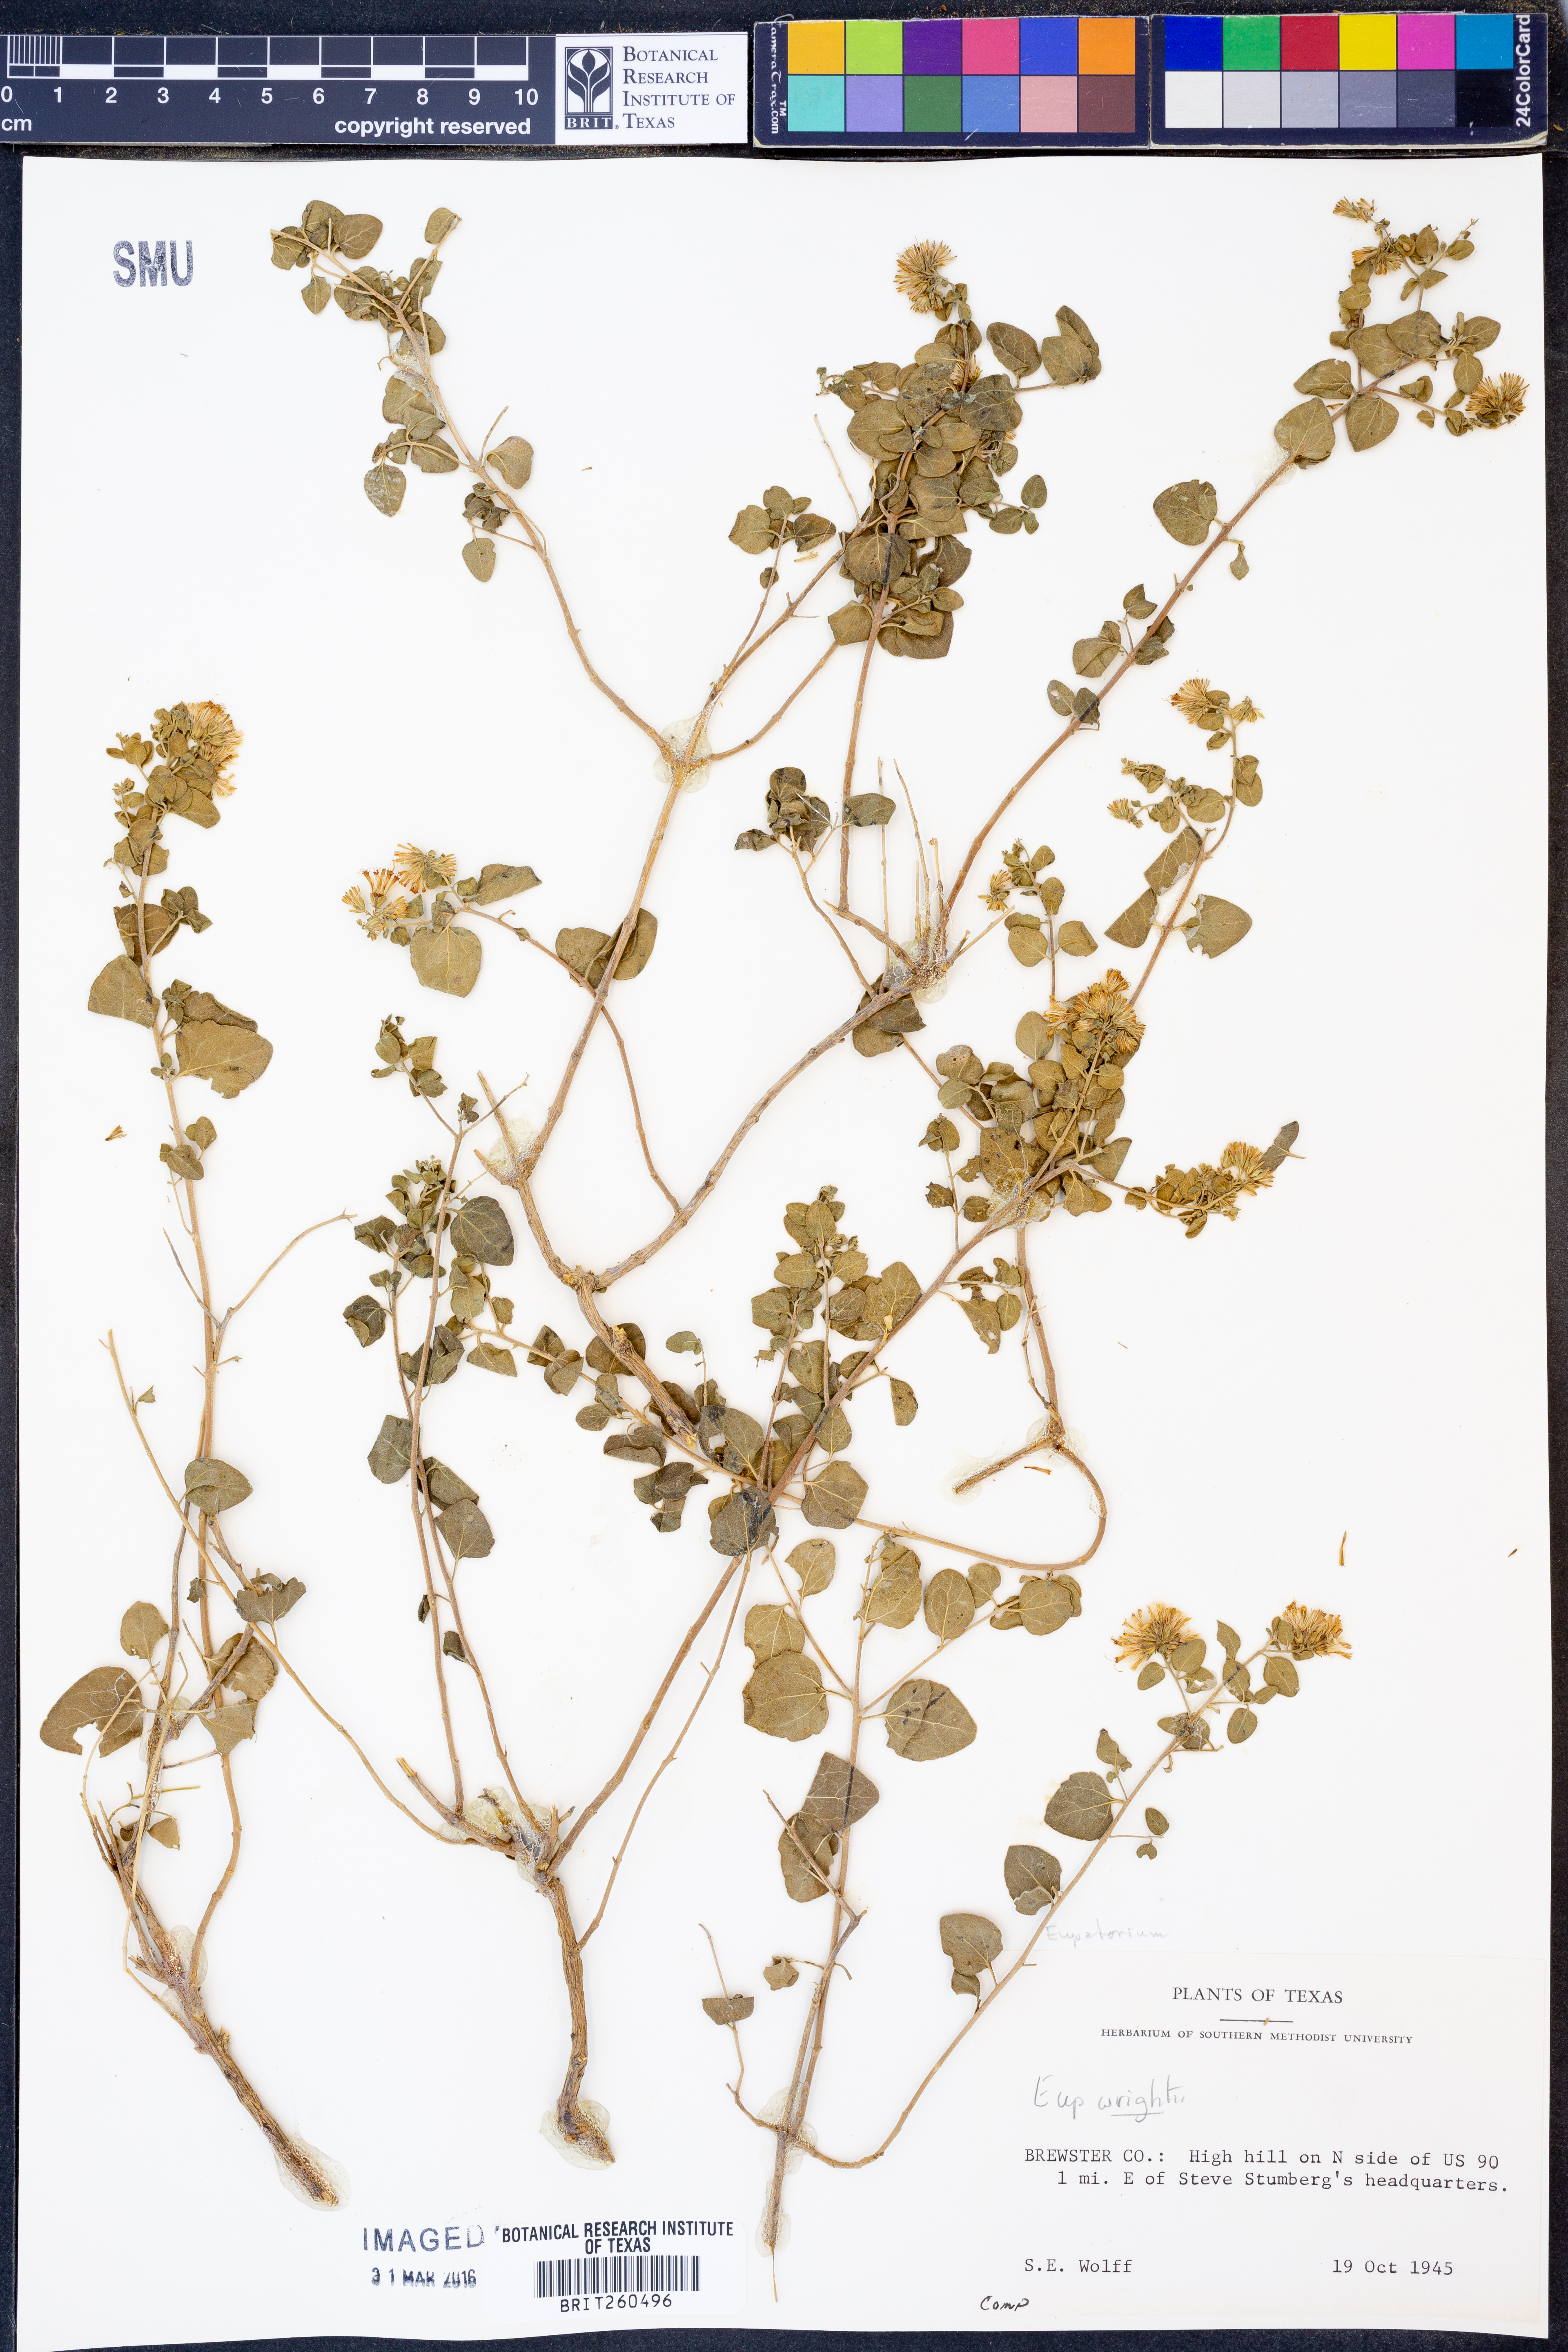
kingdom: Plantae
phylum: Tracheophyta
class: Magnoliopsida
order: Asterales
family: Asteraceae
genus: Ageratina
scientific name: Ageratina wrightii
